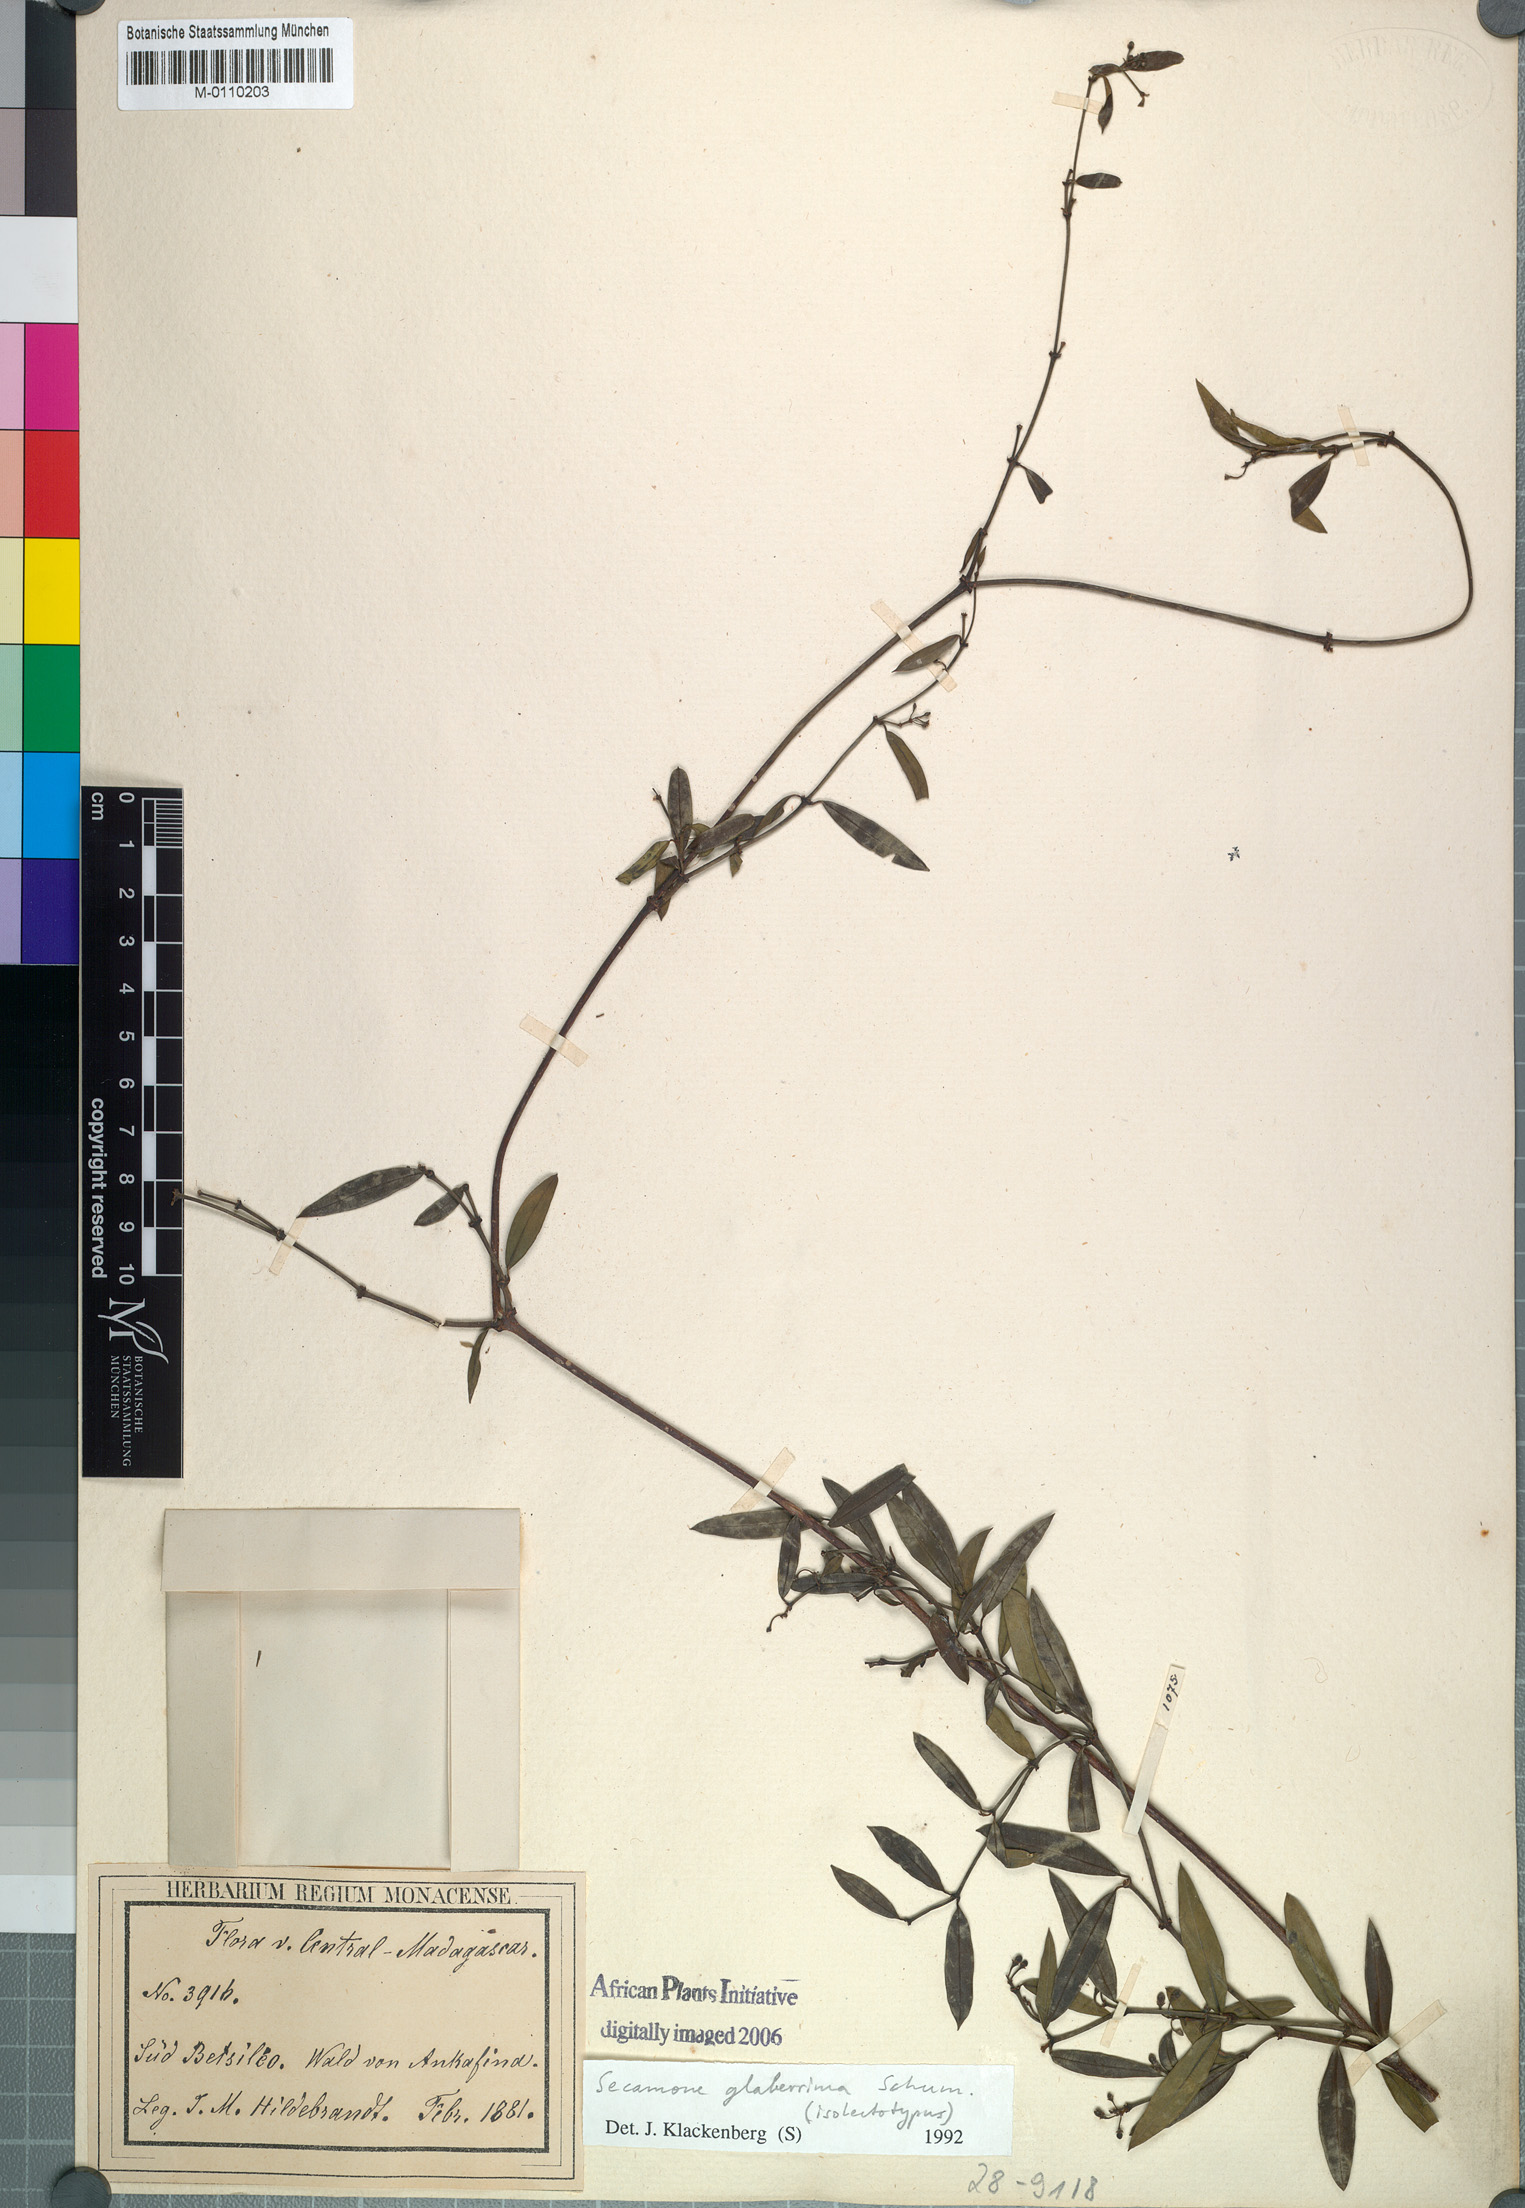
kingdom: Plantae
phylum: Tracheophyta
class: Magnoliopsida
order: Gentianales
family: Apocynaceae
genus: Secamone
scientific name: Secamone glaberrima
